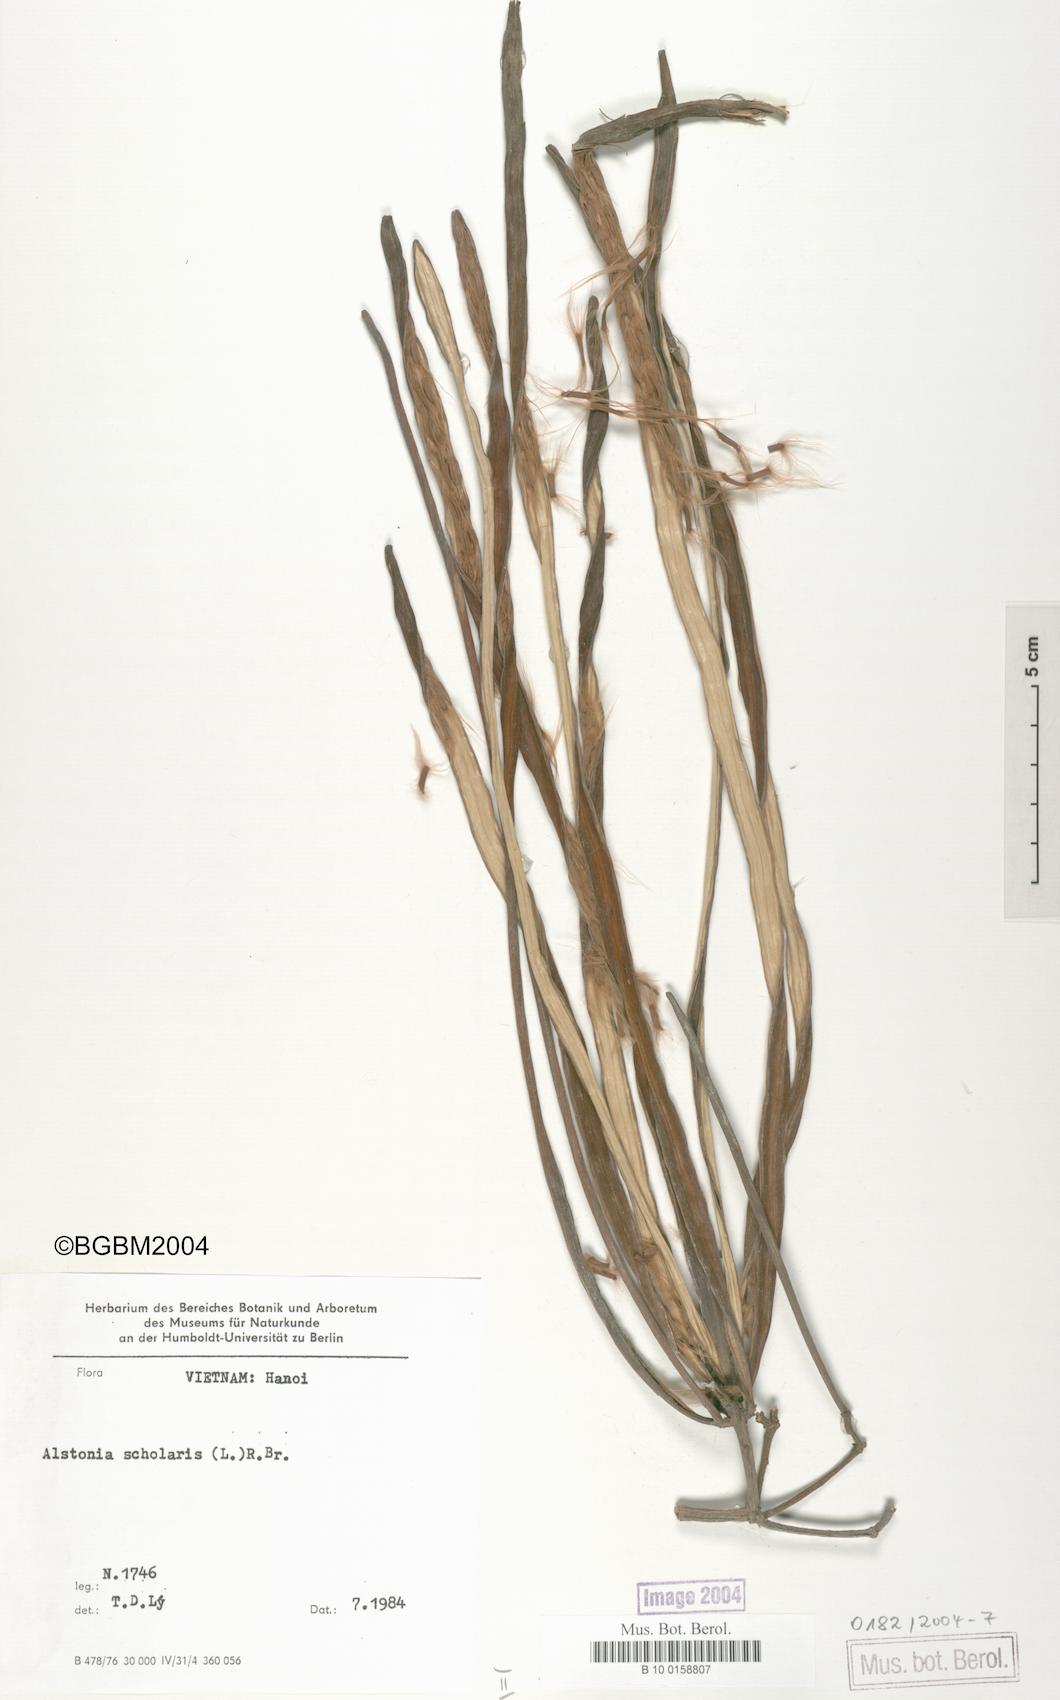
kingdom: Plantae
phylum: Tracheophyta
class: Magnoliopsida
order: Gentianales
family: Apocynaceae
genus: Alstonia
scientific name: Alstonia scholaris
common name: White cheesewood
